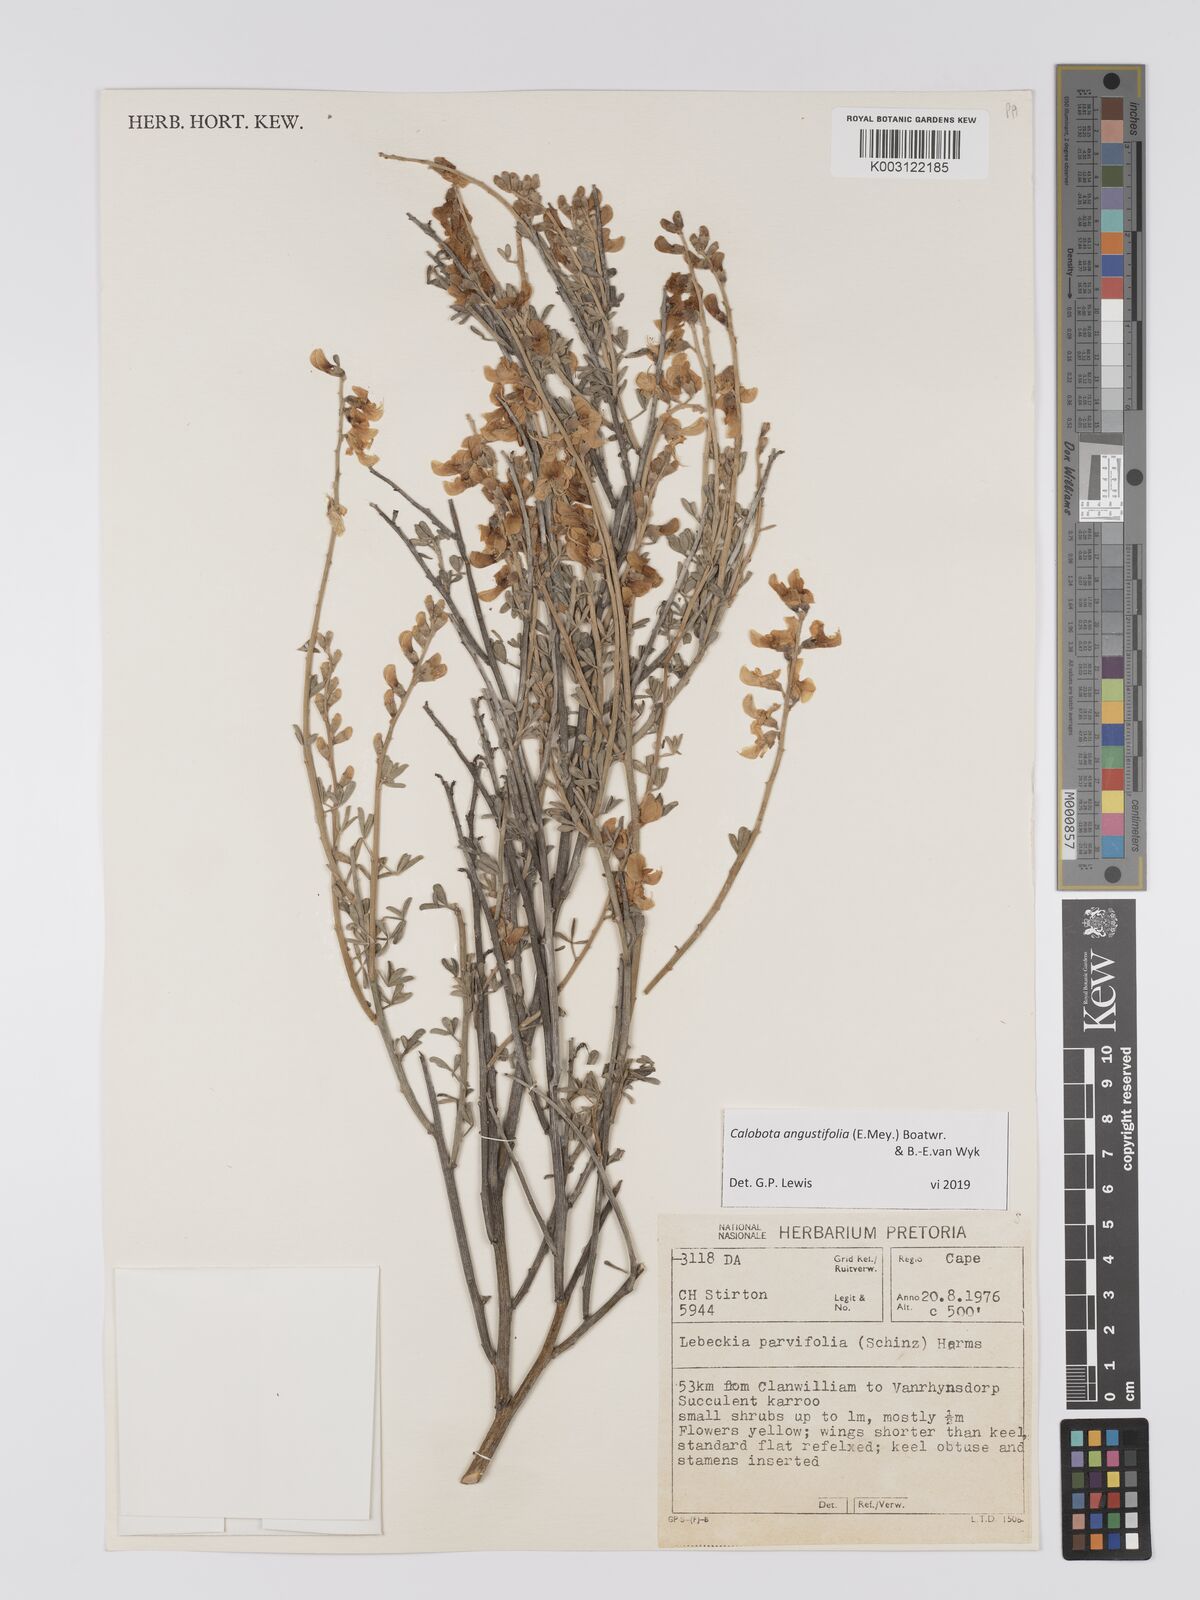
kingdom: Plantae
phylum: Tracheophyta
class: Magnoliopsida
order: Fabales
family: Fabaceae
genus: Calobota
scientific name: Calobota angustifolia
